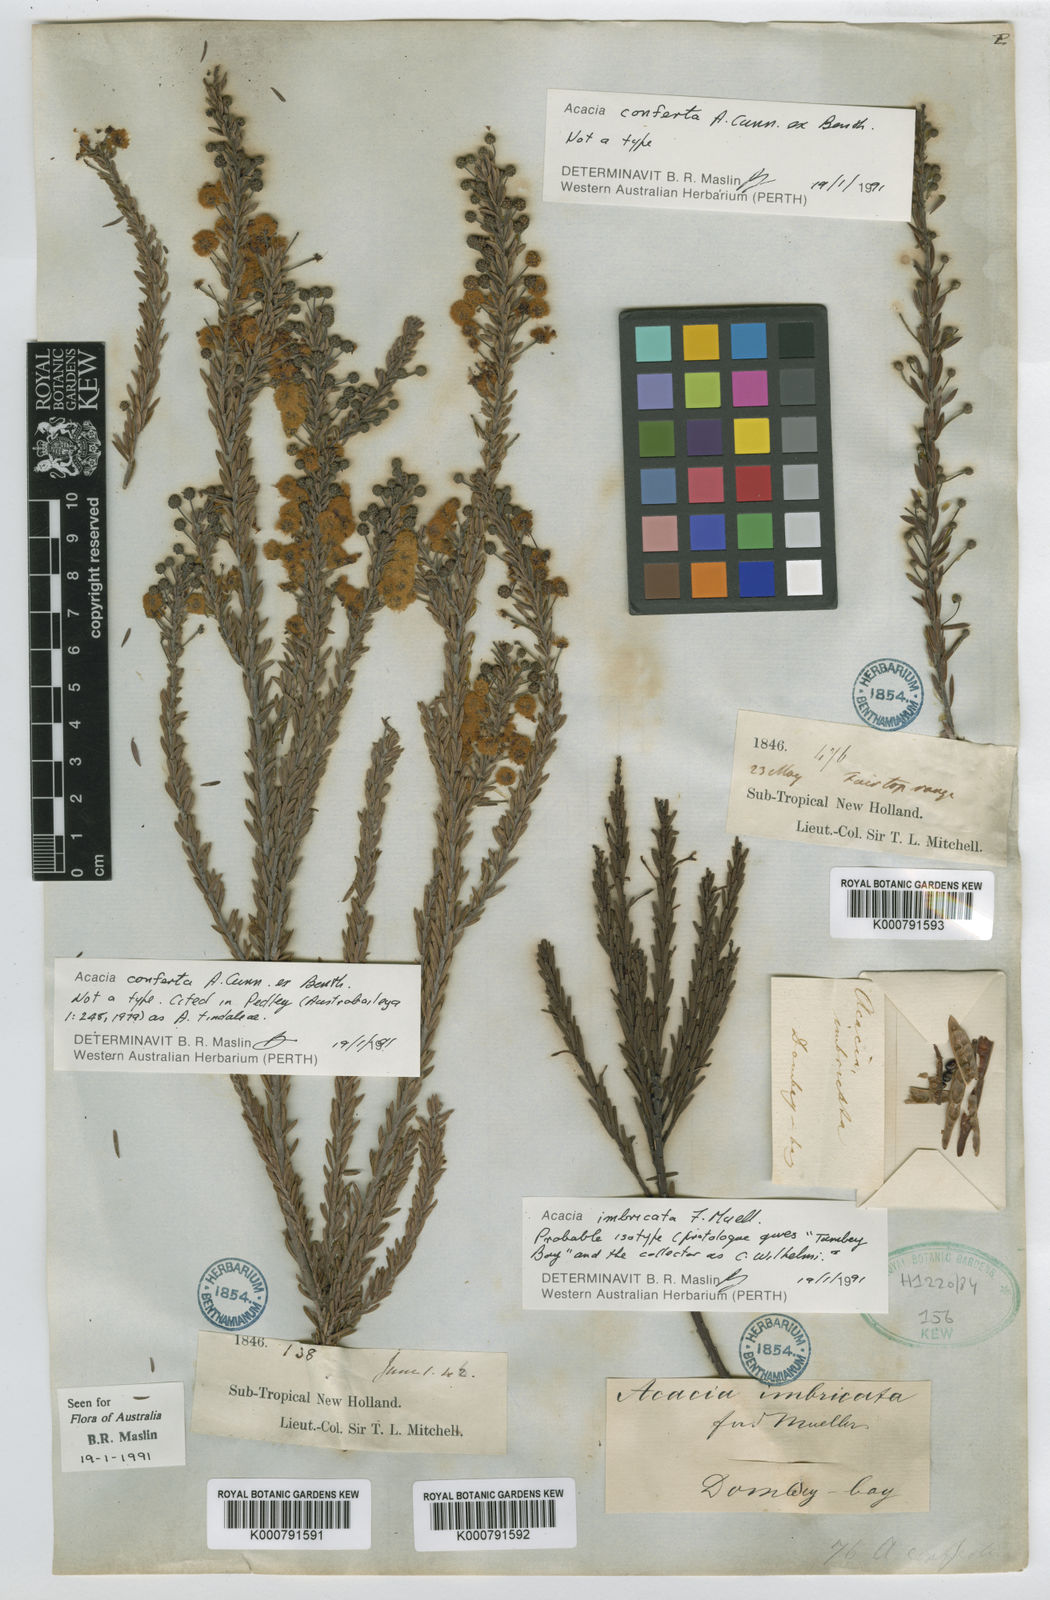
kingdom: Plantae
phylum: Tracheophyta
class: Magnoliopsida
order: Fabales
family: Fabaceae
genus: Acacia
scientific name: Acacia conferta
